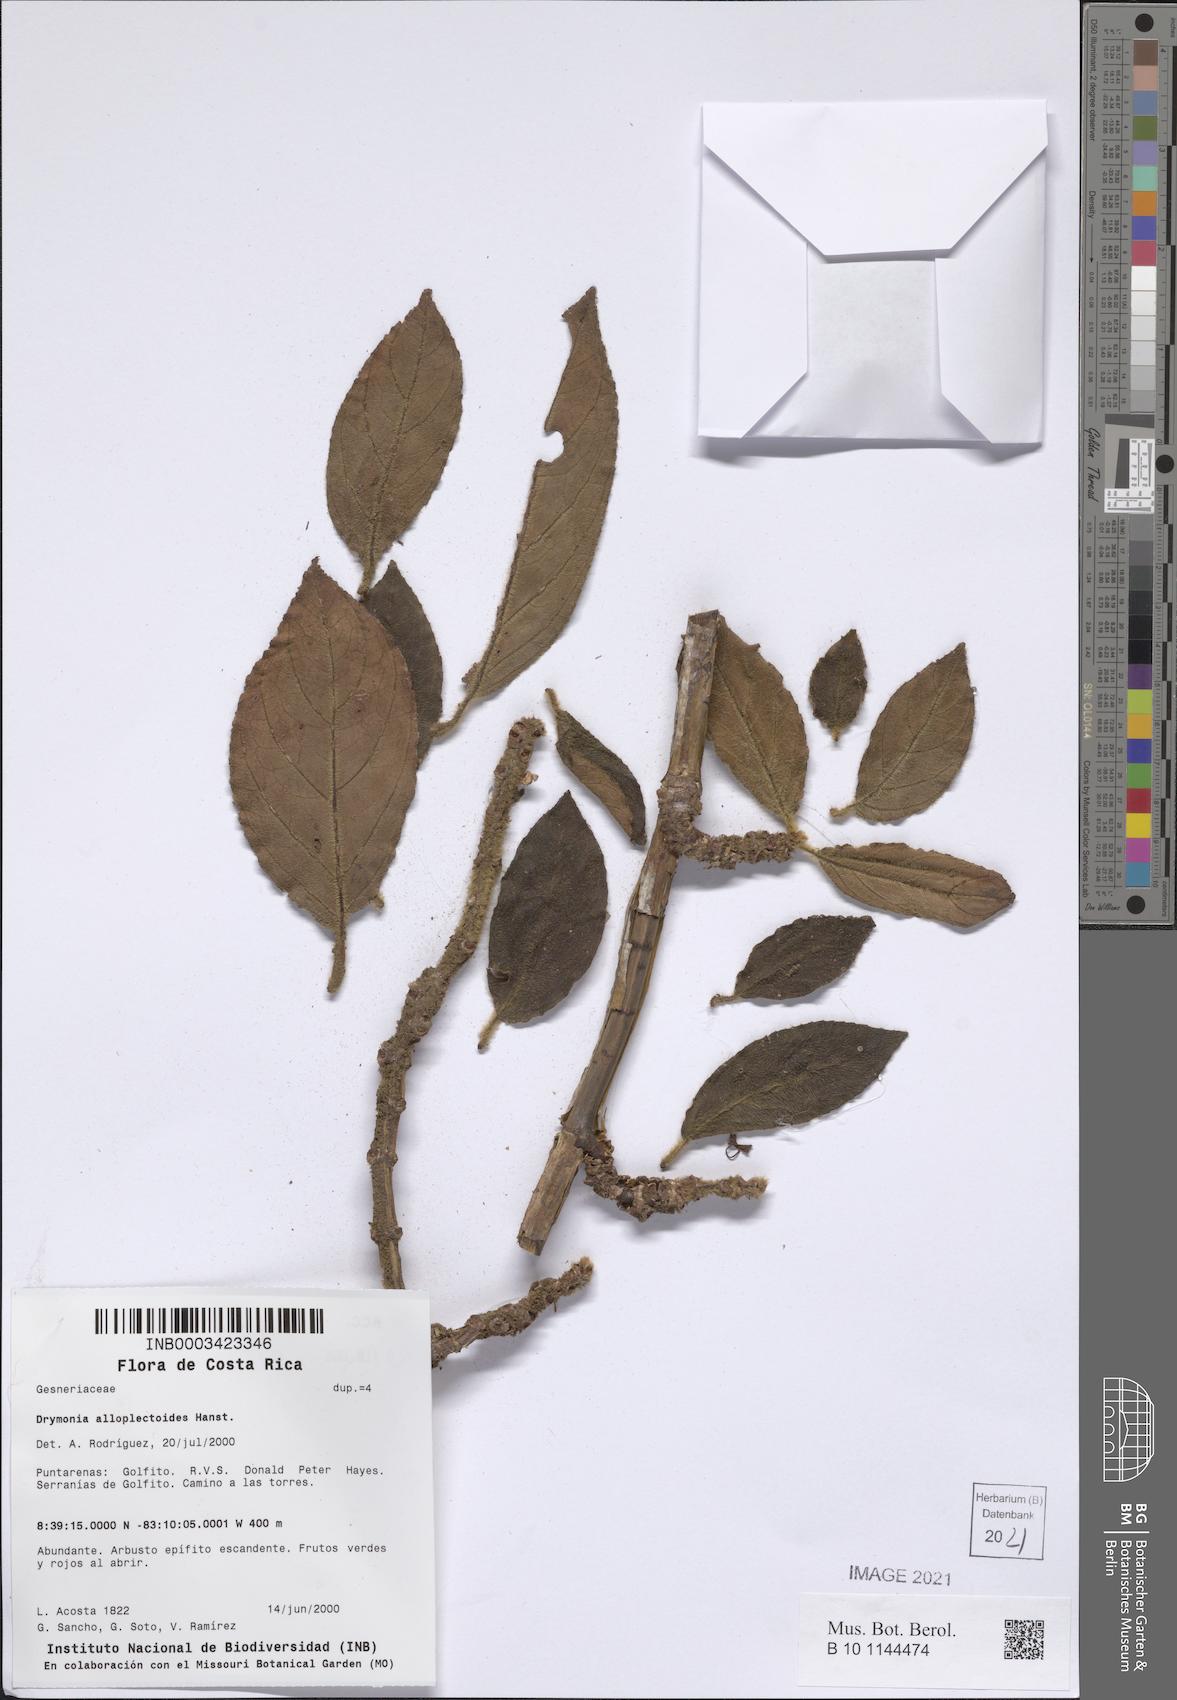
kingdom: Plantae
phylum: Tracheophyta
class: Magnoliopsida
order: Lamiales
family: Gesneriaceae
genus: Drymonia
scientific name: Drymonia alloplectoides
